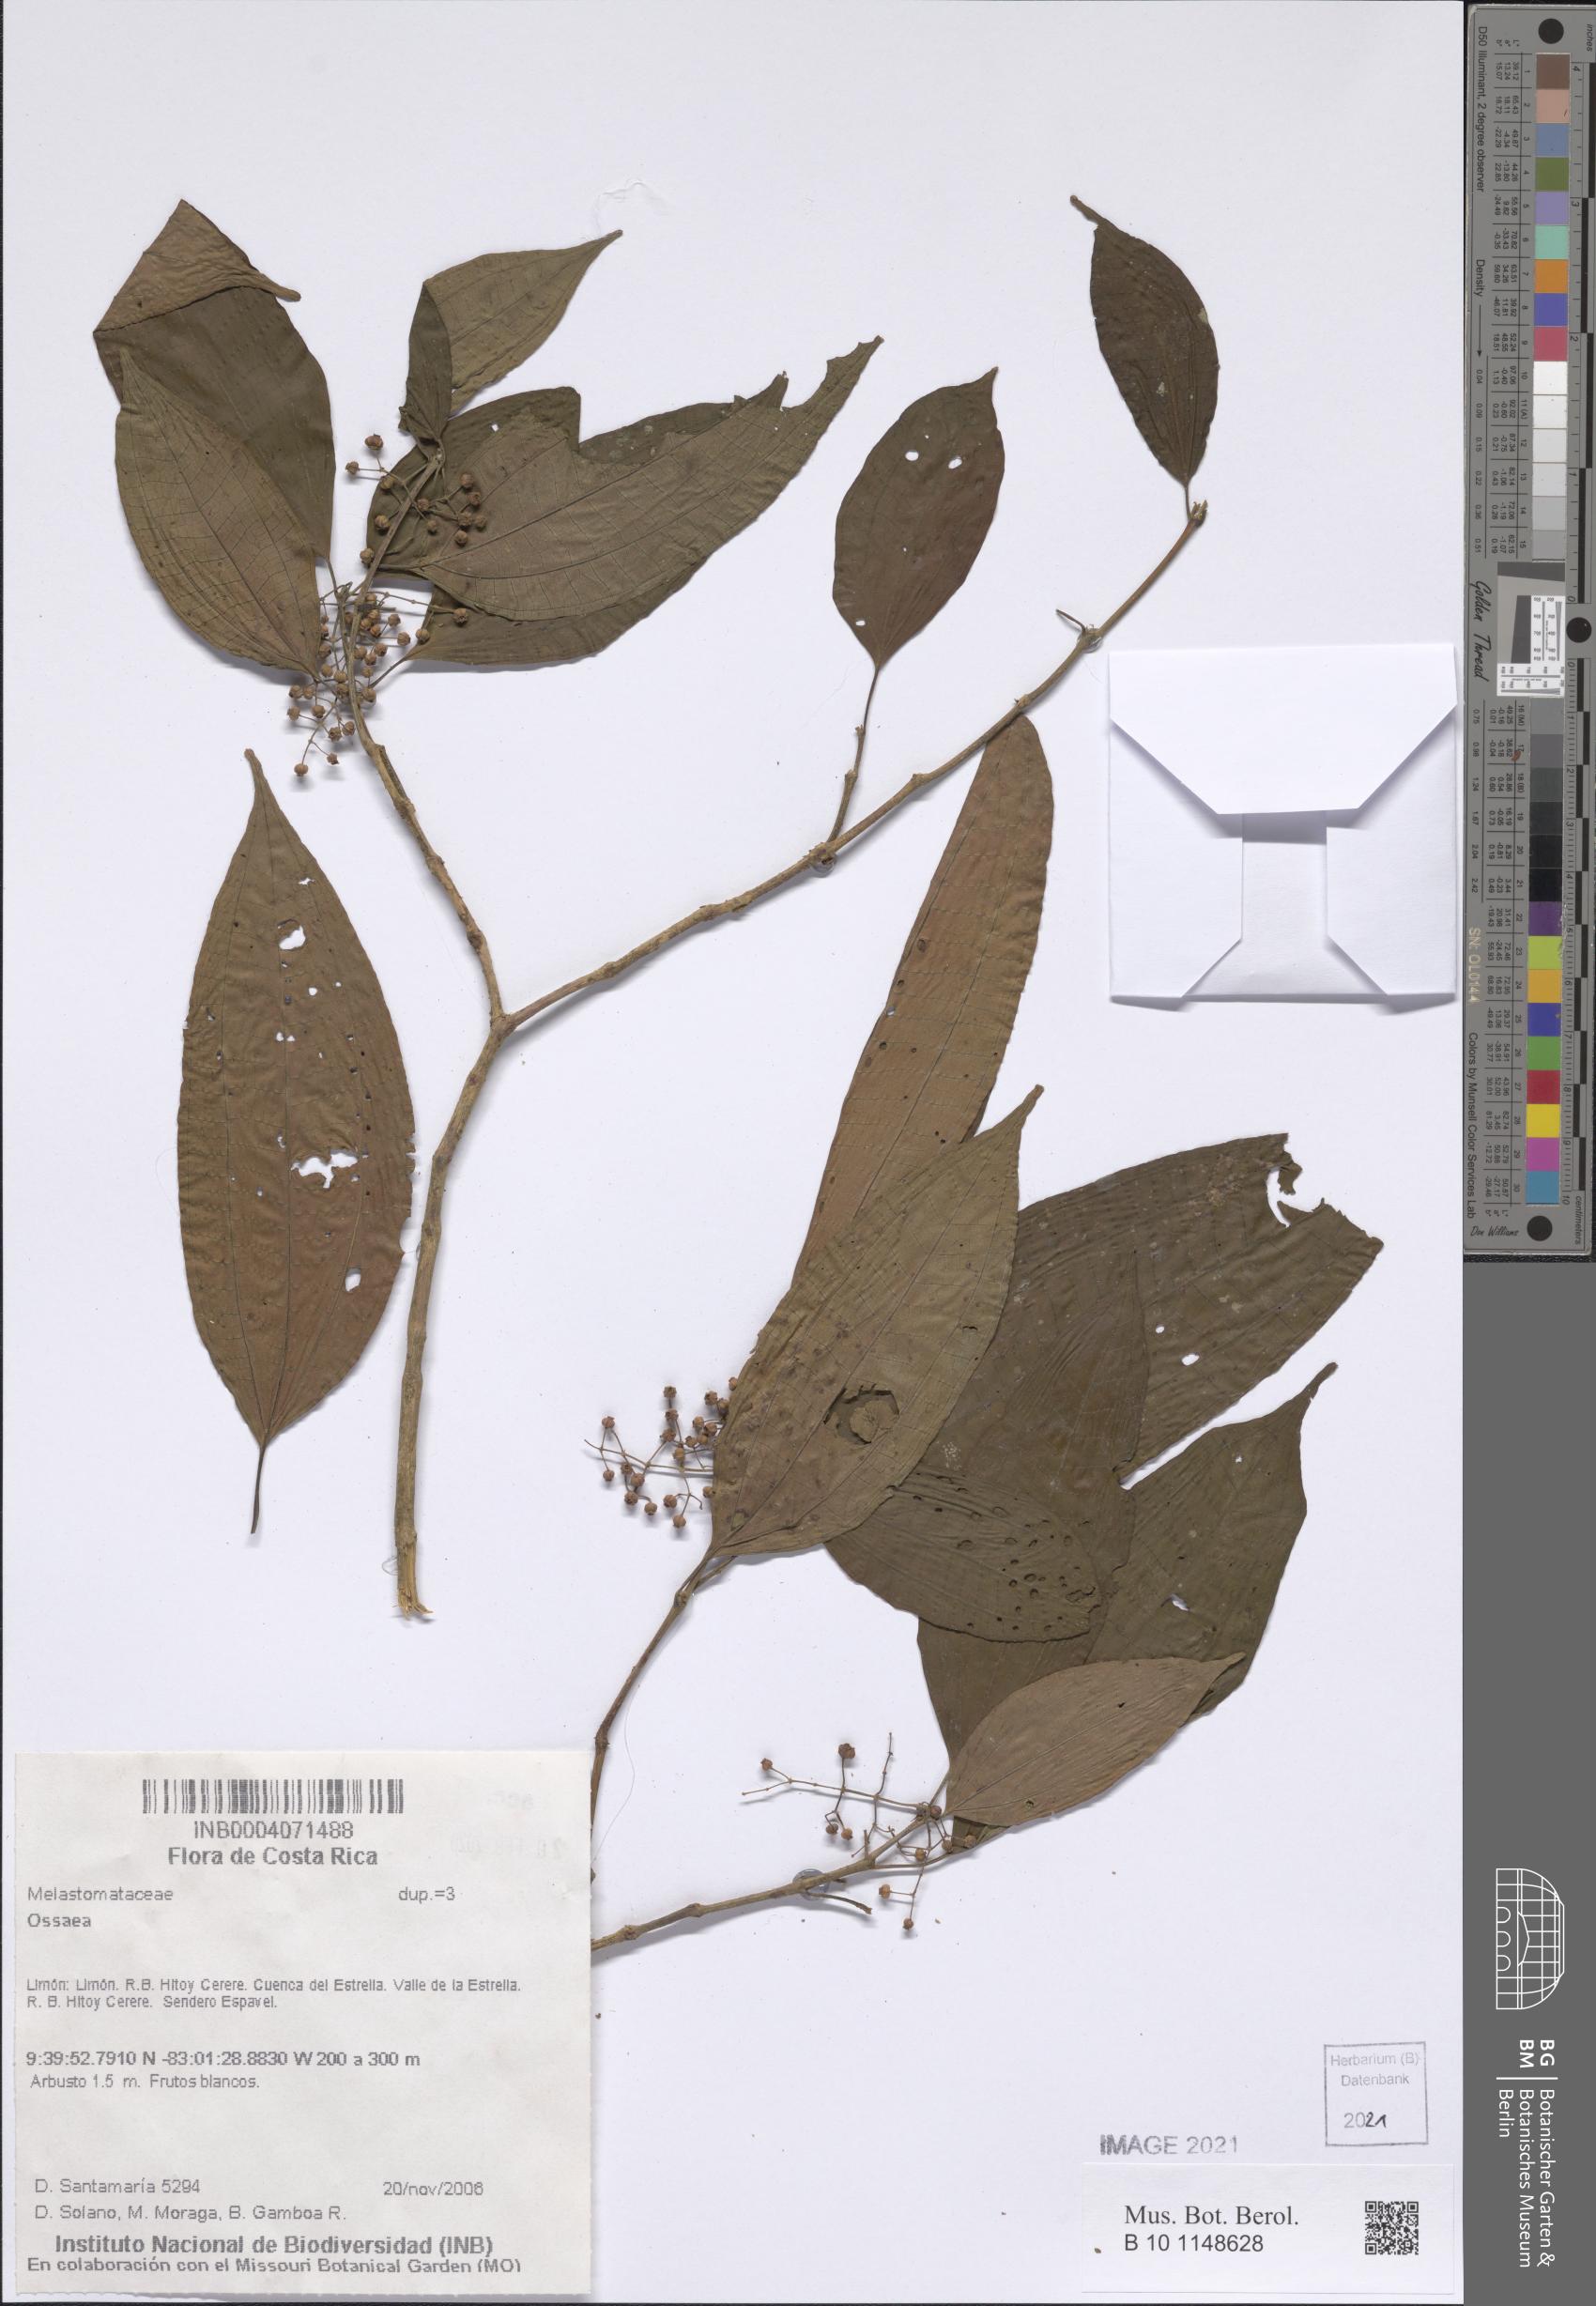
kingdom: Plantae
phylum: Tracheophyta
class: Magnoliopsida
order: Myrtales
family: Melastomataceae
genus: Ossaea
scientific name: Ossaea
